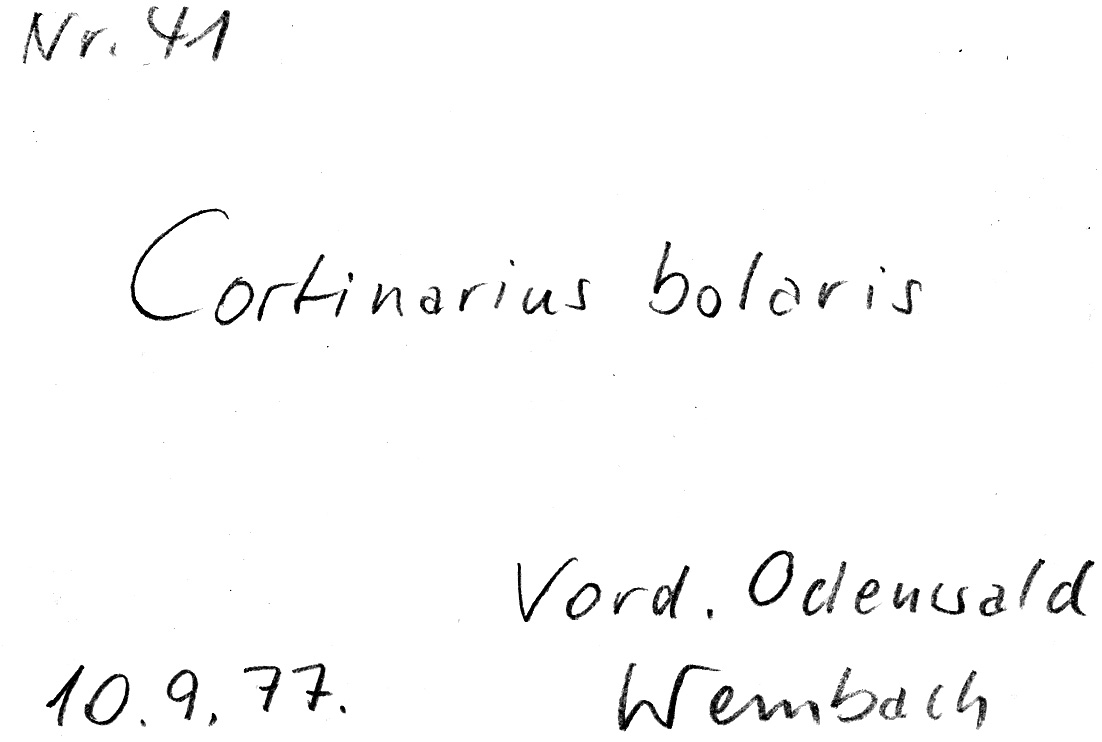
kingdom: Fungi
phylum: Basidiomycota
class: Agaricomycetes
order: Agaricales
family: Cortinariaceae
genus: Cortinarius
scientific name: Cortinarius bolaris
